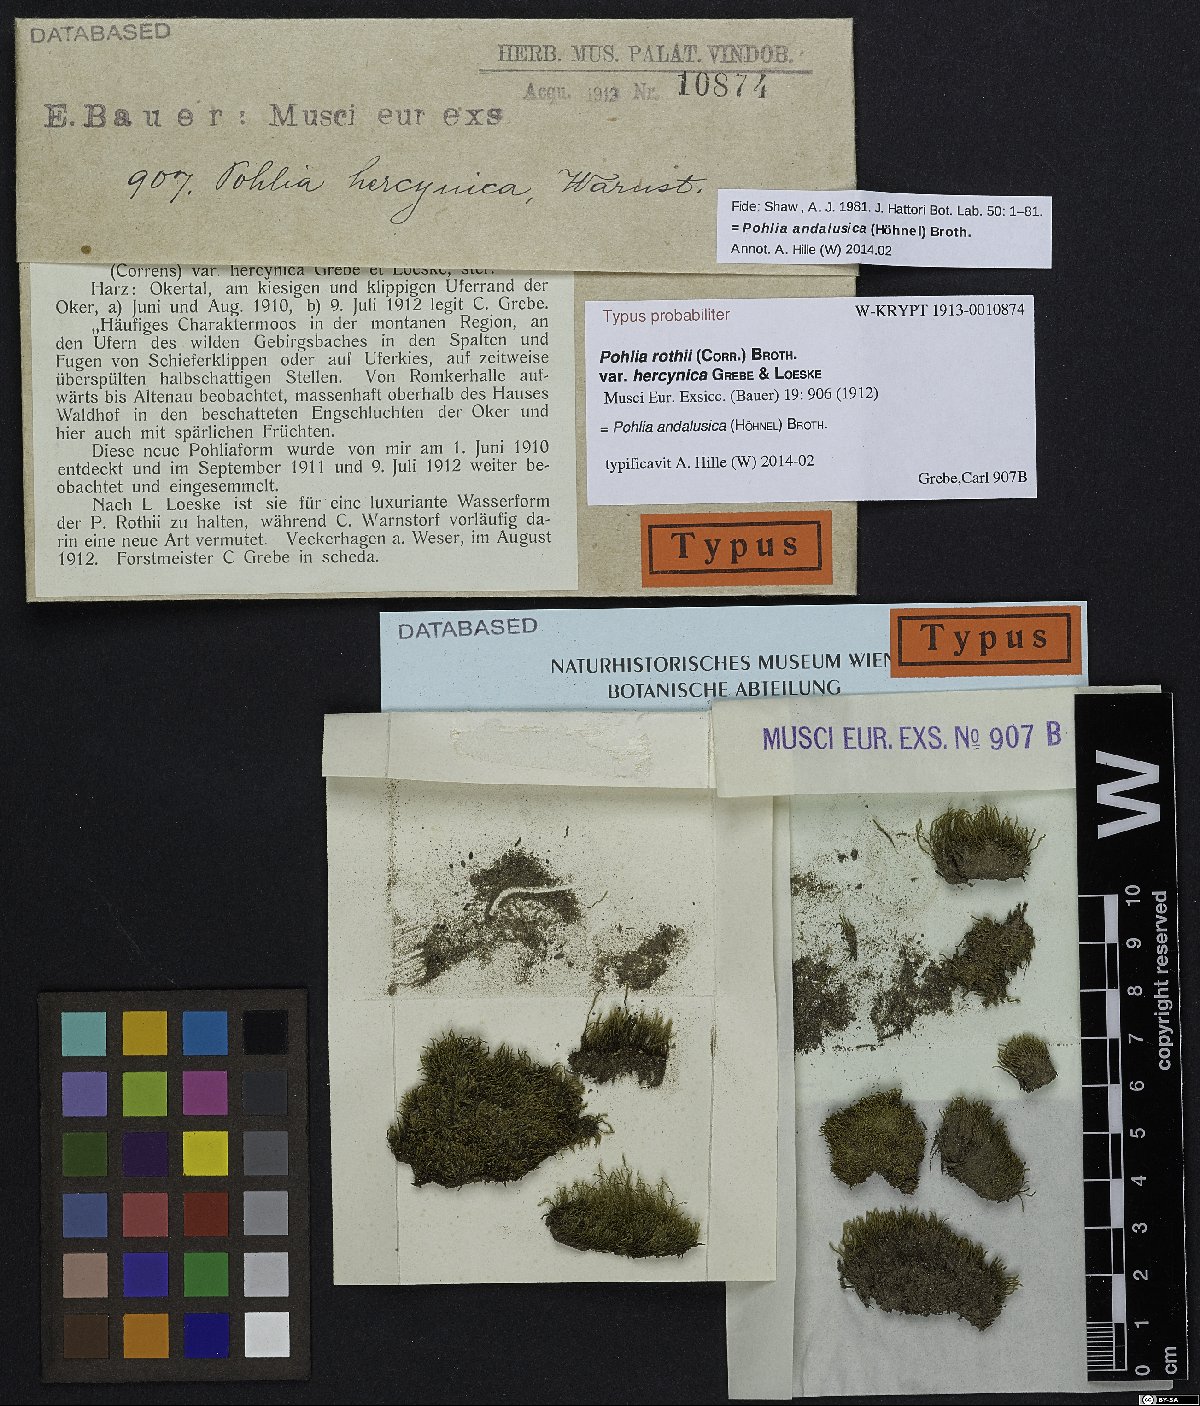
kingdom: Plantae
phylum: Bryophyta
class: Bryopsida
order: Bryales
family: Mniaceae
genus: Pohlia
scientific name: Pohlia andalusica
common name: Andalusian nodding moss
